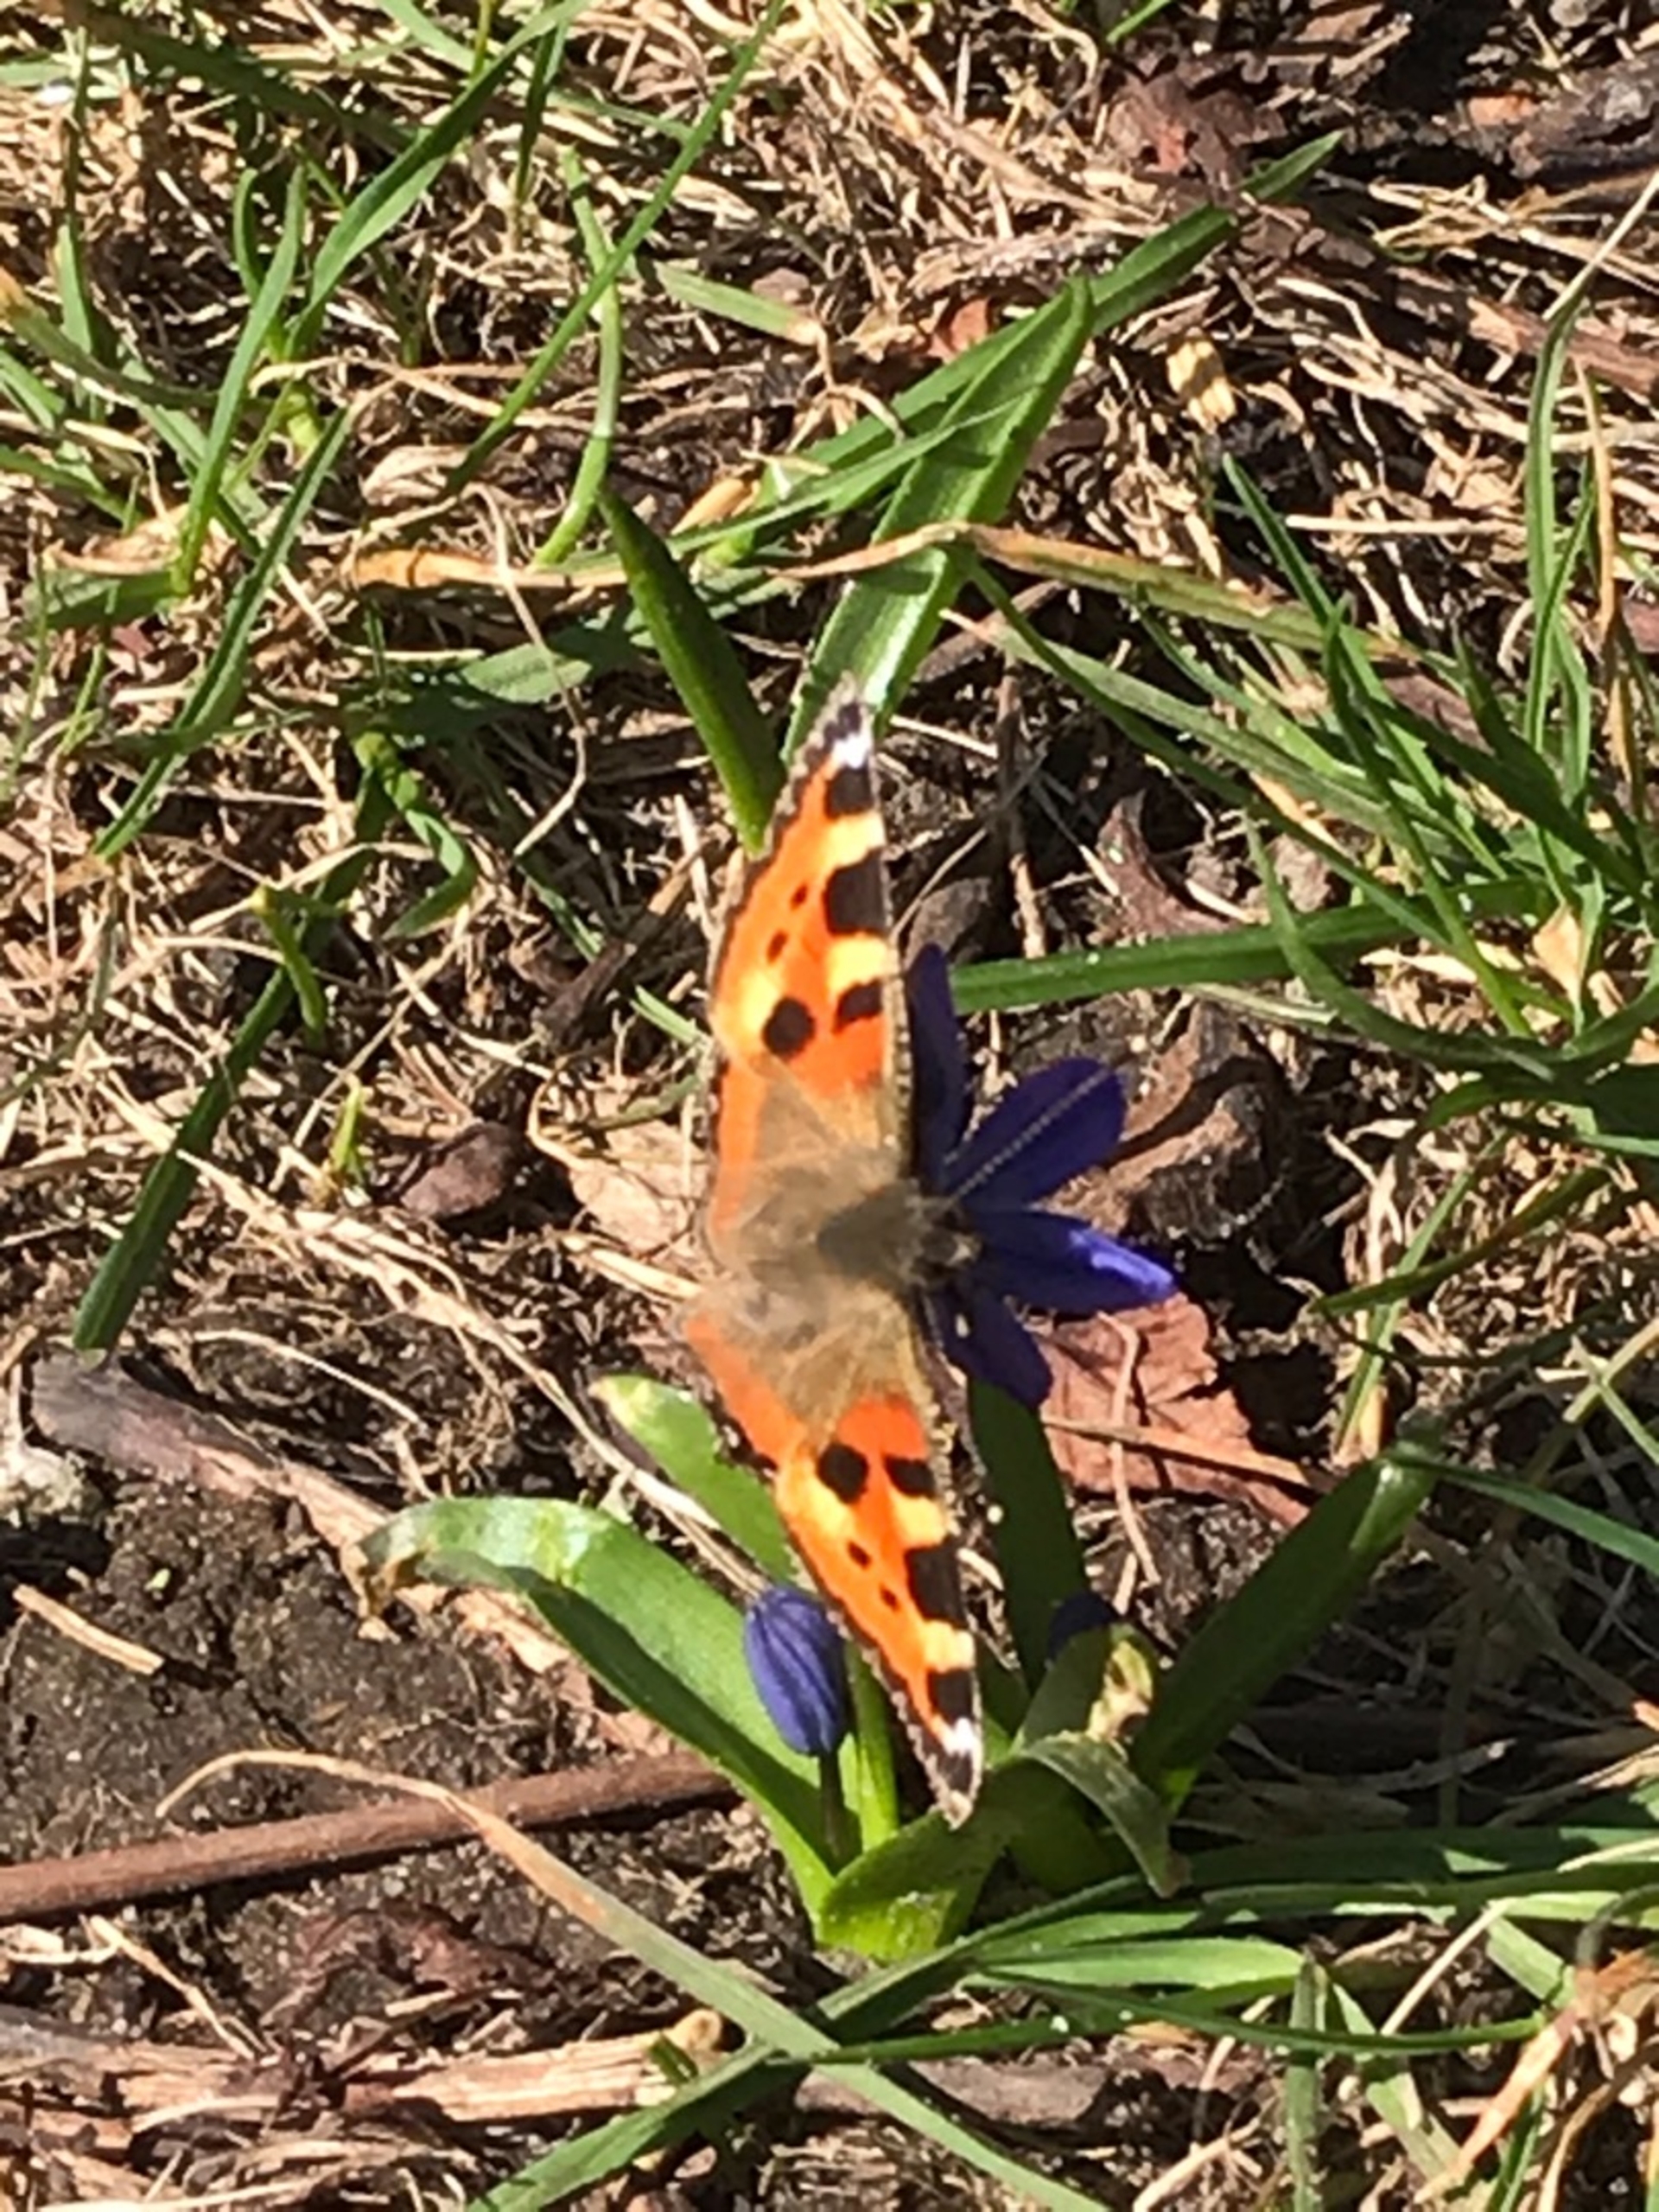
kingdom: Animalia
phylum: Arthropoda
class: Insecta
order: Lepidoptera
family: Nymphalidae
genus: Aglais
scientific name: Aglais urticae
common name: Nældens takvinge
